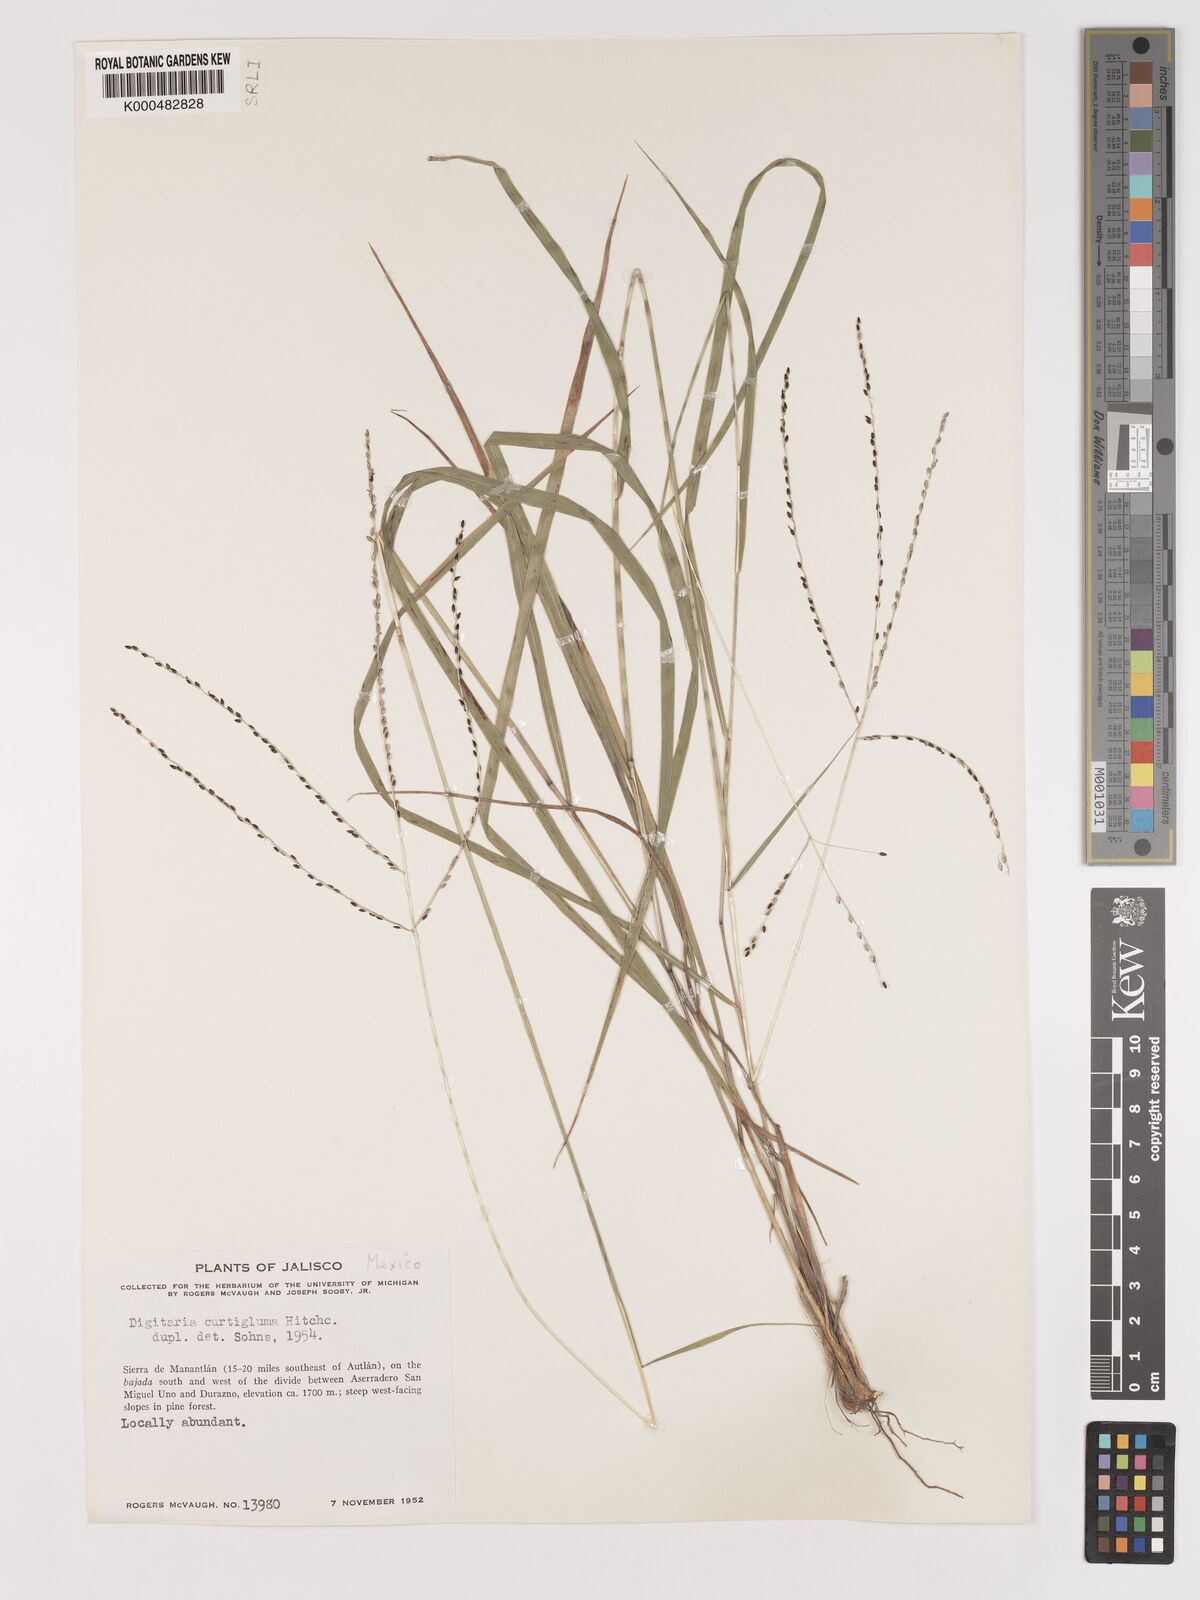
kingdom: Plantae
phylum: Tracheophyta
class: Liliopsida
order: Poales
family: Poaceae
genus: Digitaria
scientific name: Digitaria curtigluma
